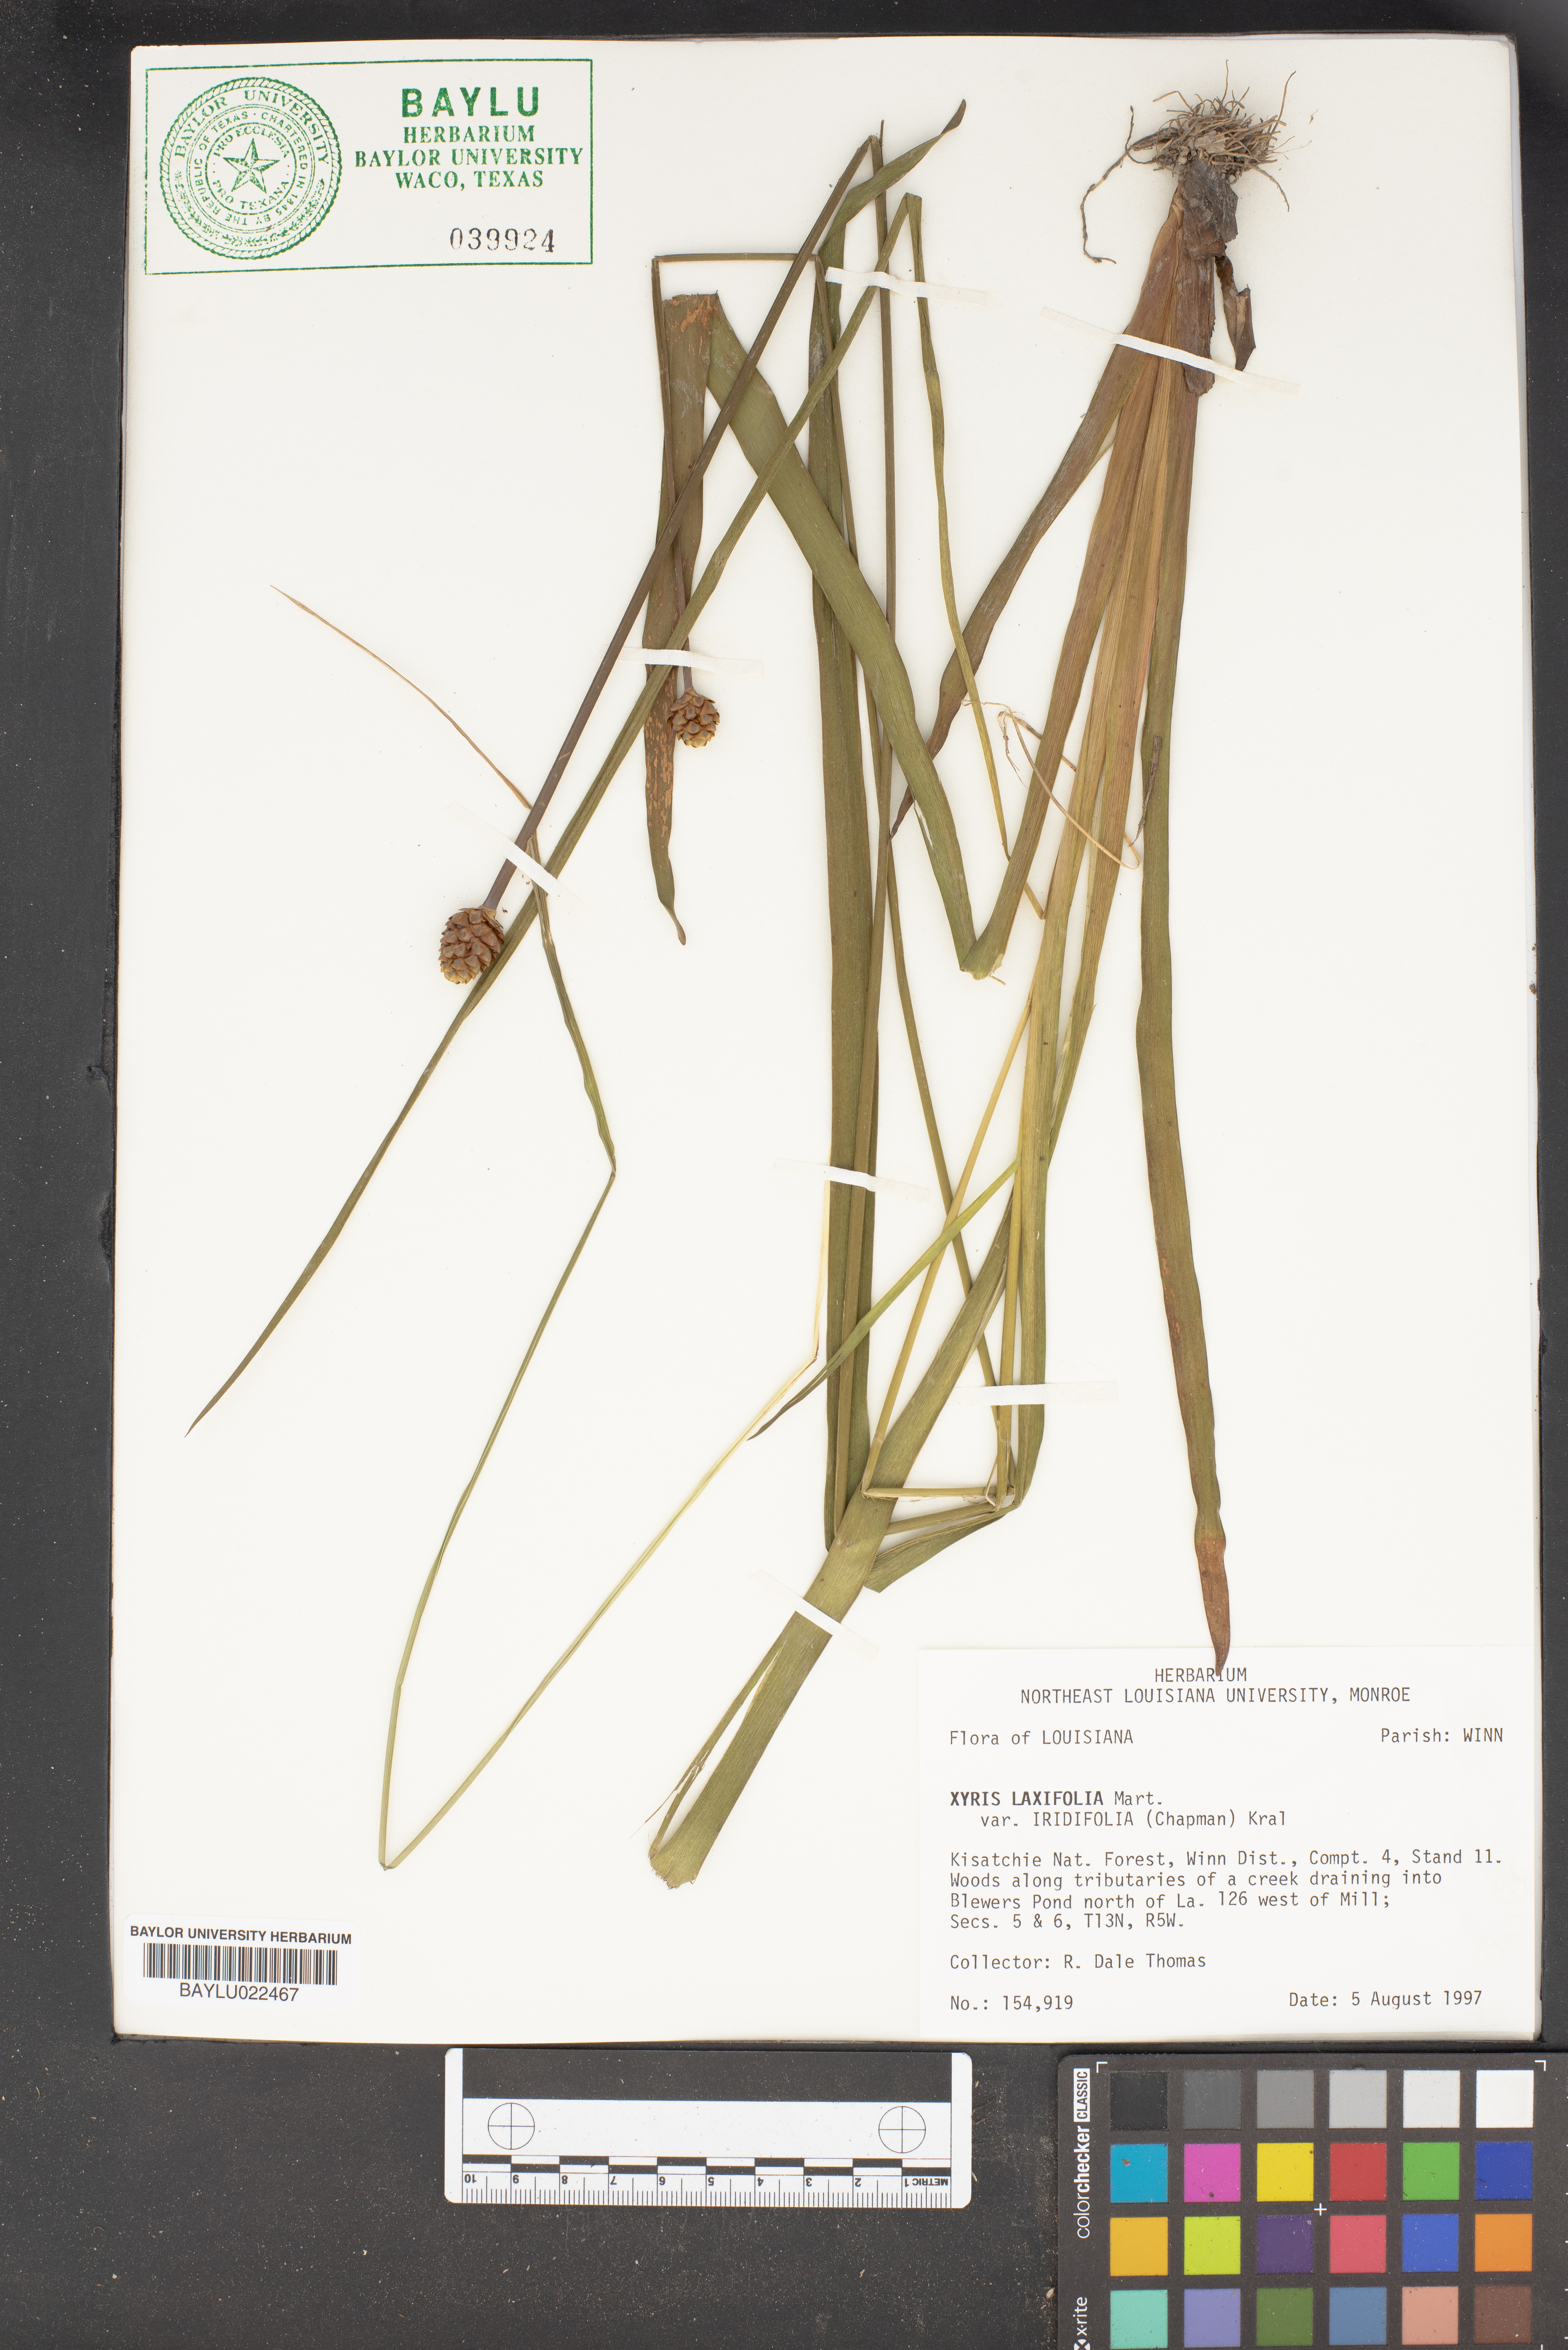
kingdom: Plantae
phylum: Tracheophyta
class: Liliopsida
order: Poales
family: Xyridaceae
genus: Xyris
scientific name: Xyris laxifolia
